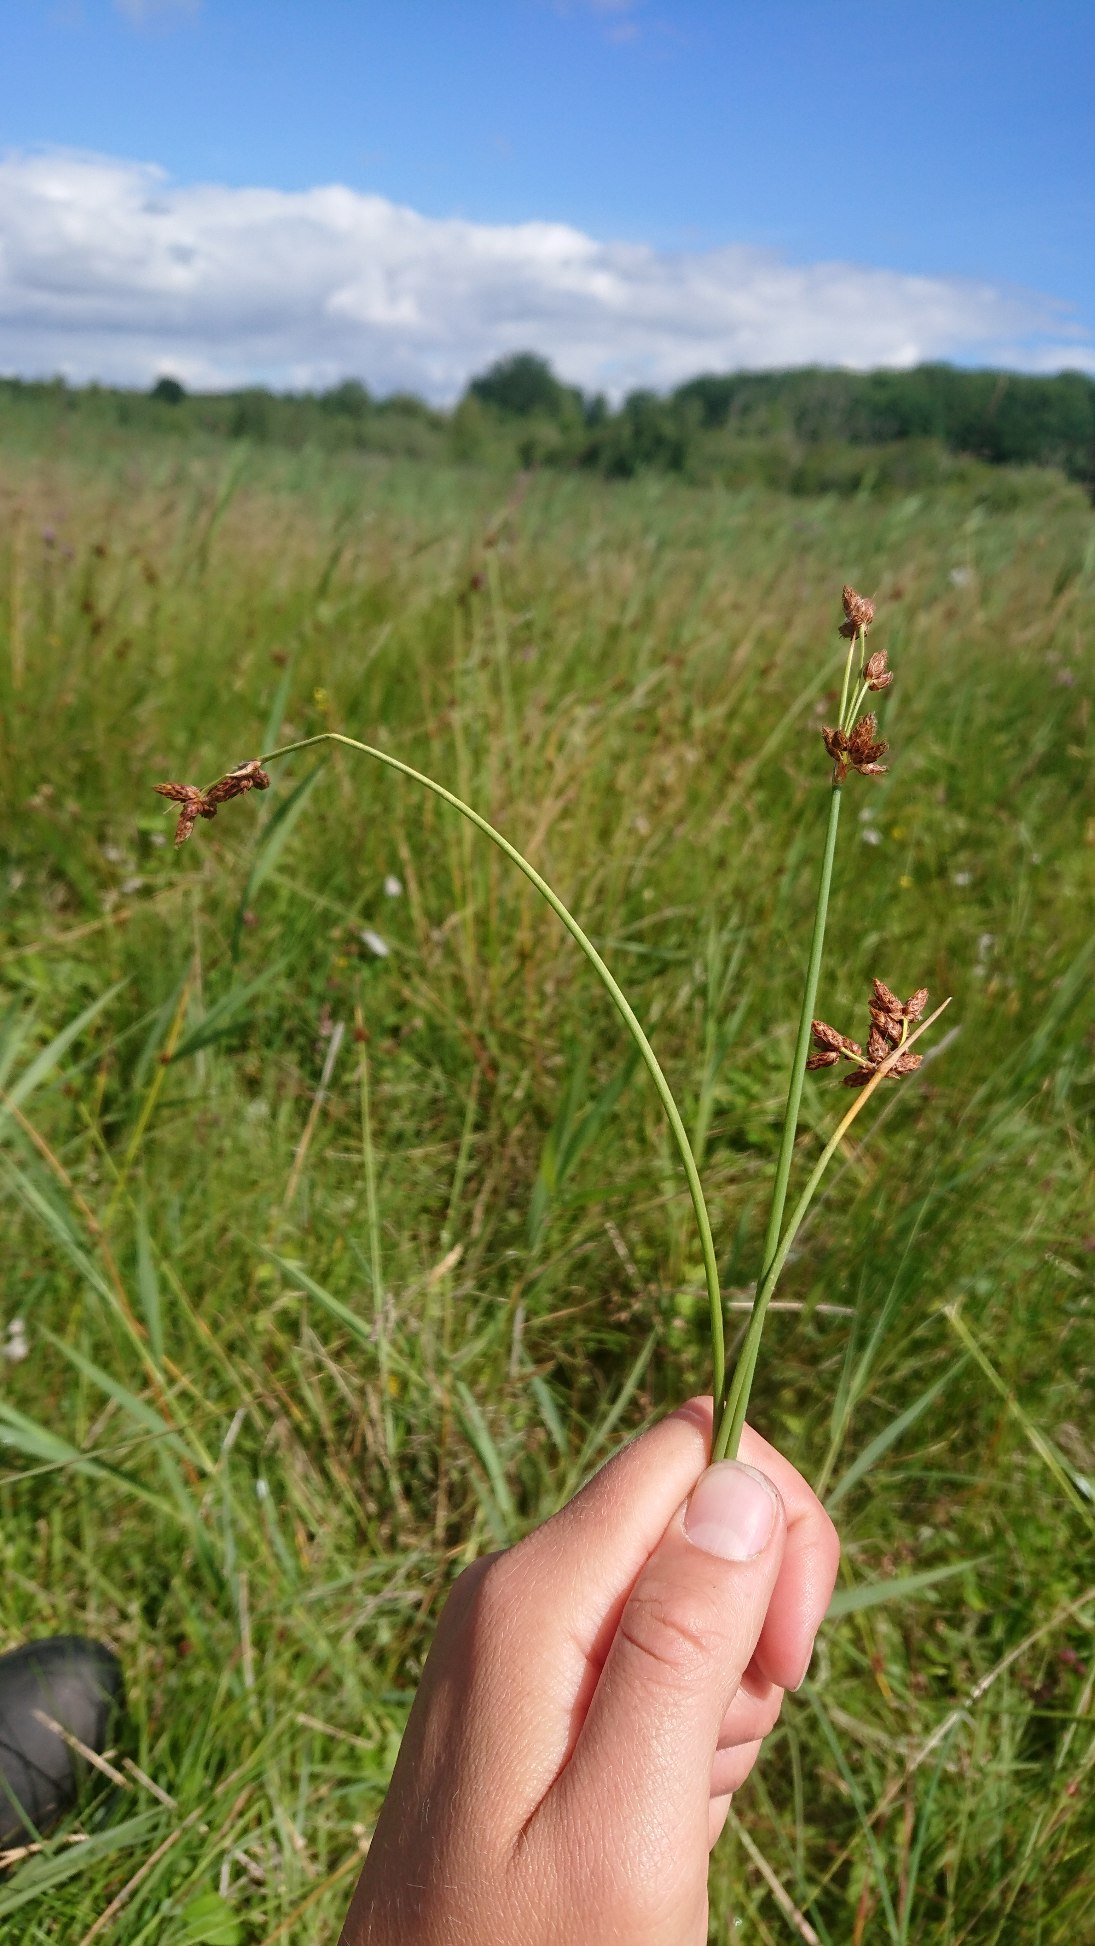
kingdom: Plantae
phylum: Tracheophyta
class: Liliopsida
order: Poales
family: Cyperaceae
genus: Schoenoplectus
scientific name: Schoenoplectus tabernaemontani
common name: Blågrøn kogleaks
